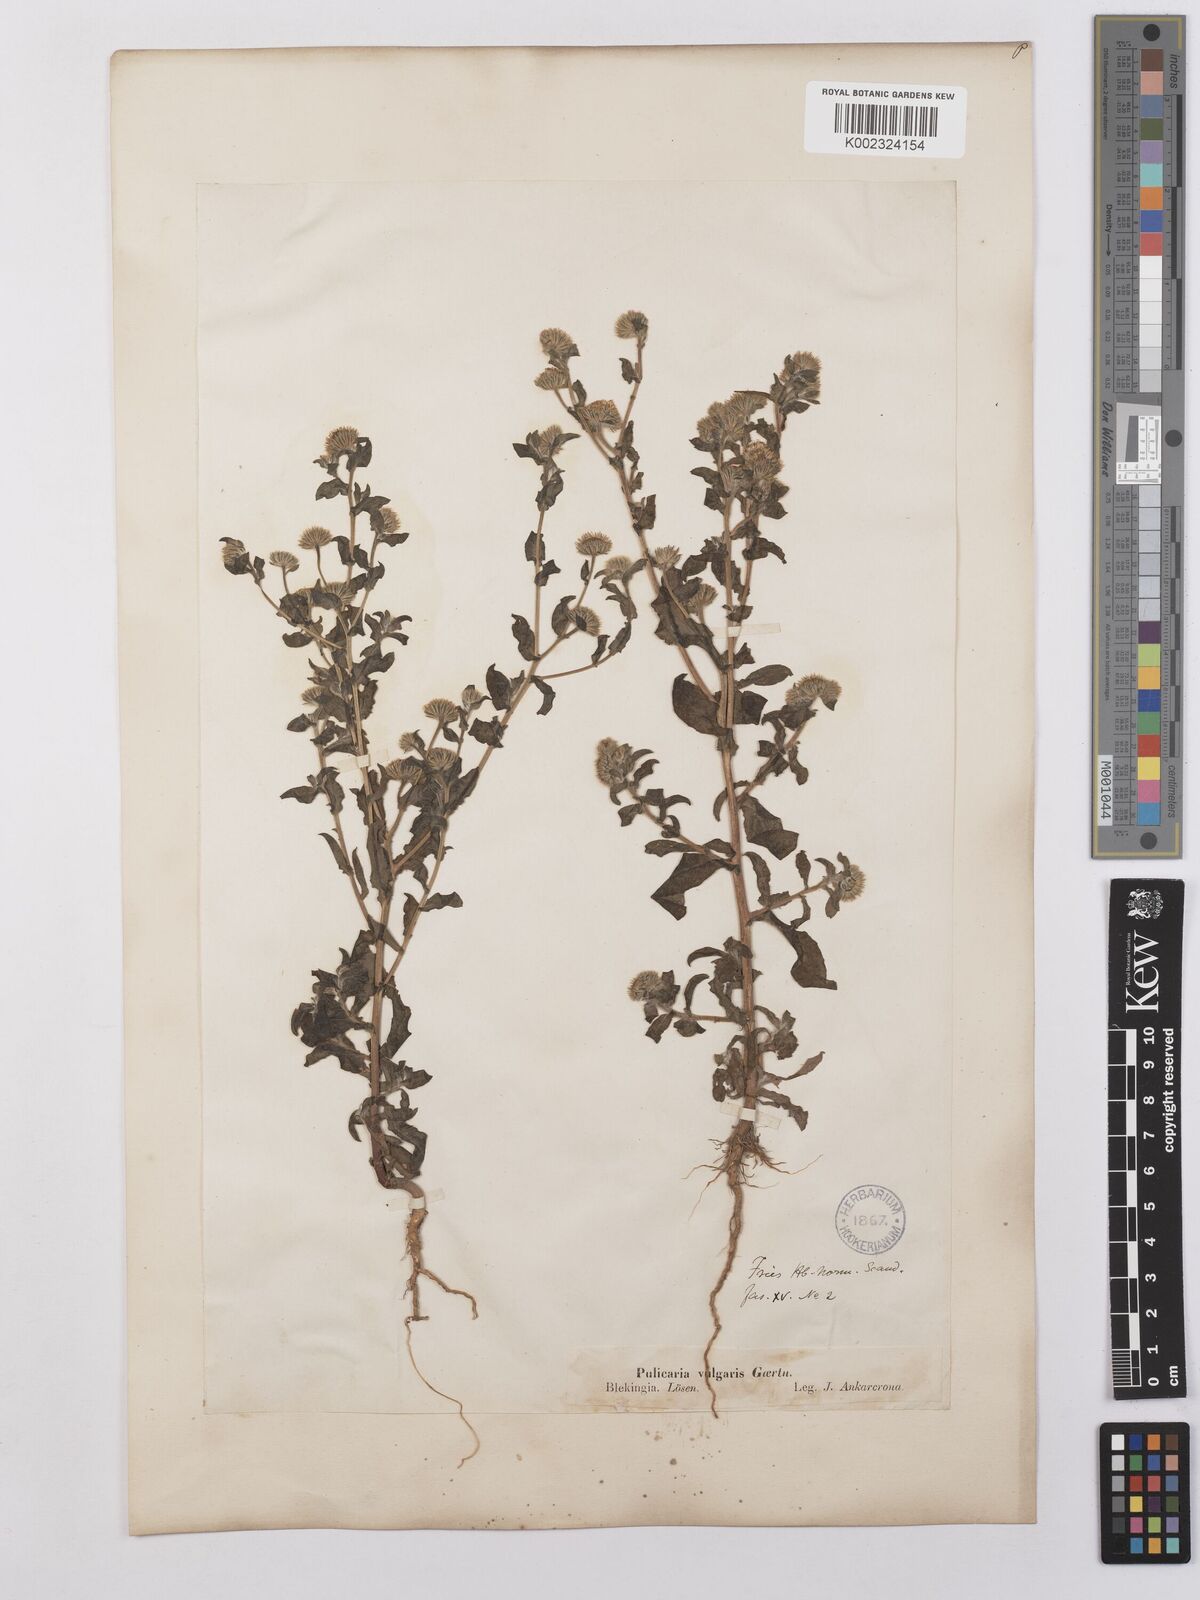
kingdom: Plantae
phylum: Tracheophyta
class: Magnoliopsida
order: Asterales
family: Asteraceae
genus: Pulicaria
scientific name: Pulicaria vulgaris
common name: Small fleabane
